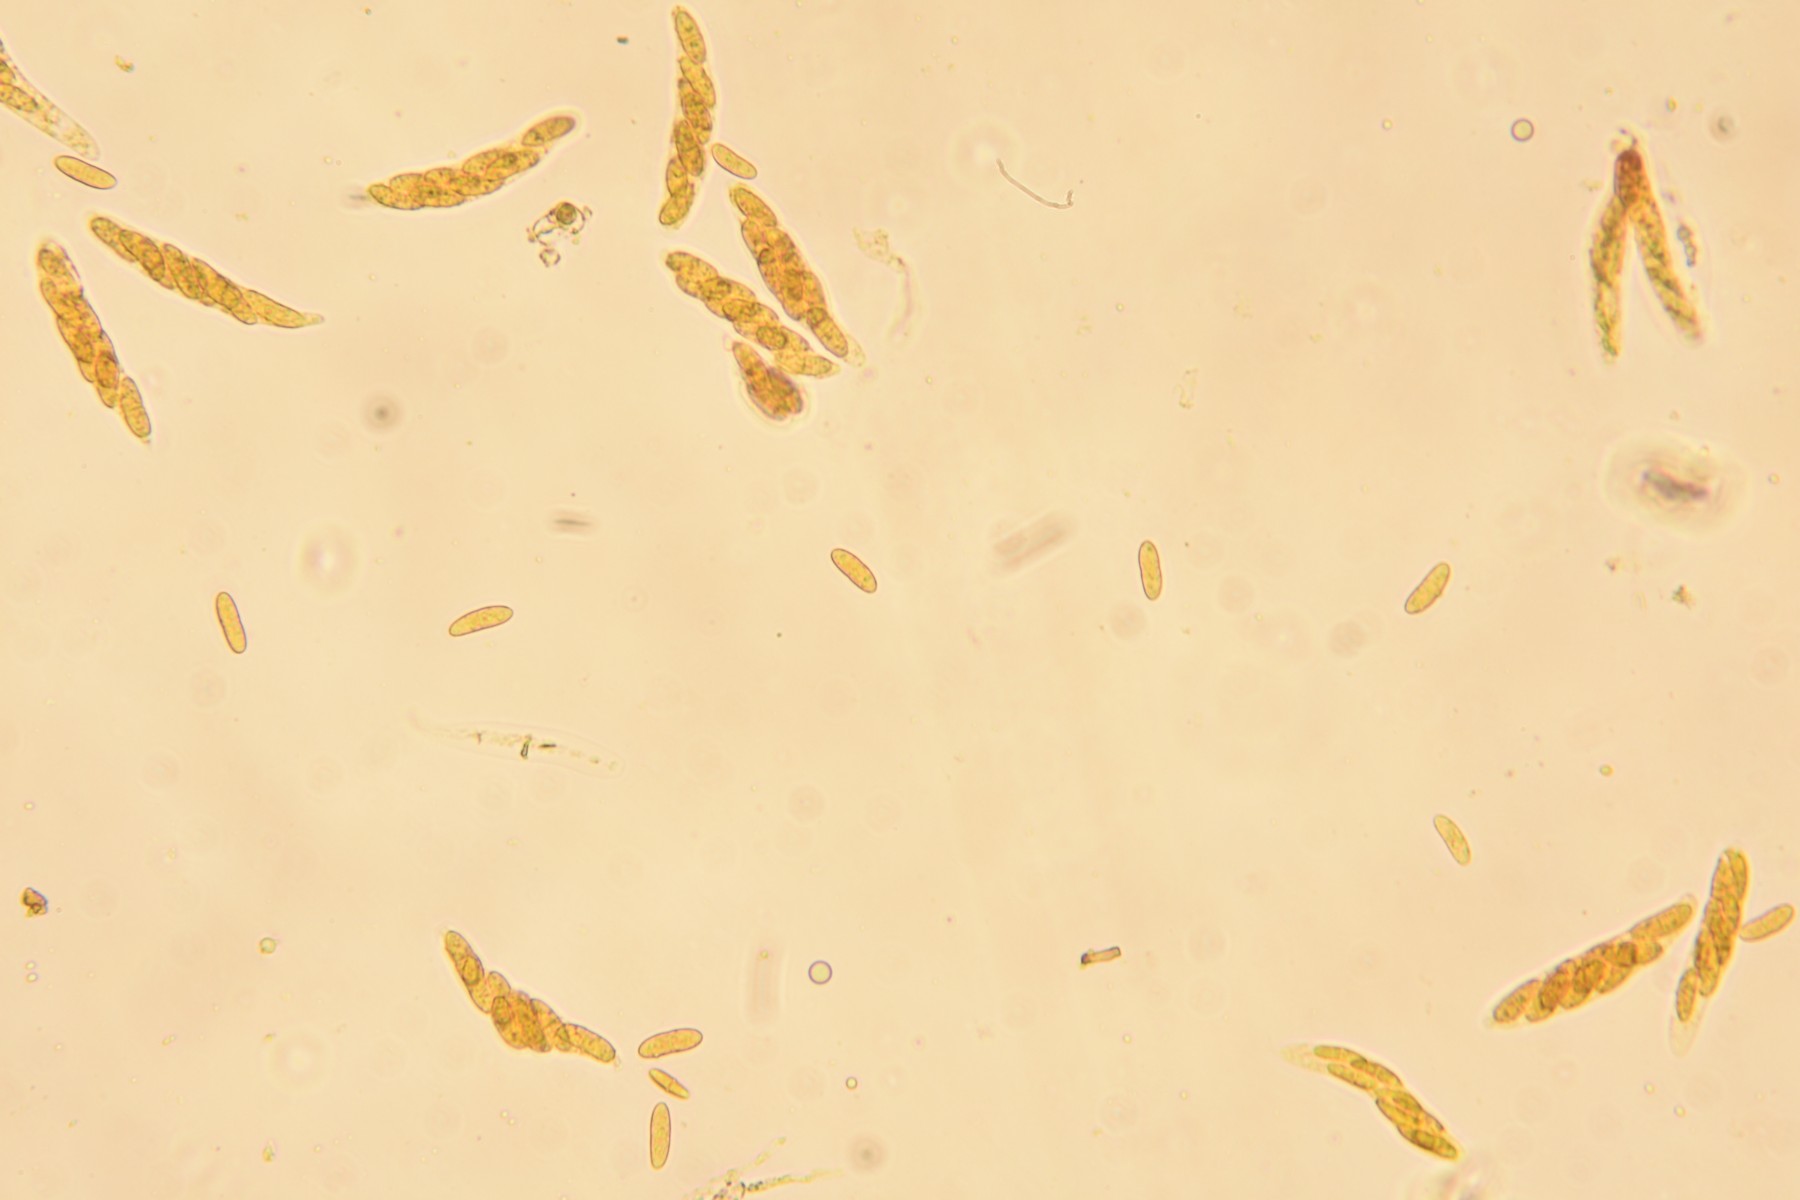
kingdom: Fungi
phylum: Ascomycota
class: Sordariomycetes
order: Diaporthales
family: Gnomoniaceae
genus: Plagiostoma
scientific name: Plagiostoma convexum
